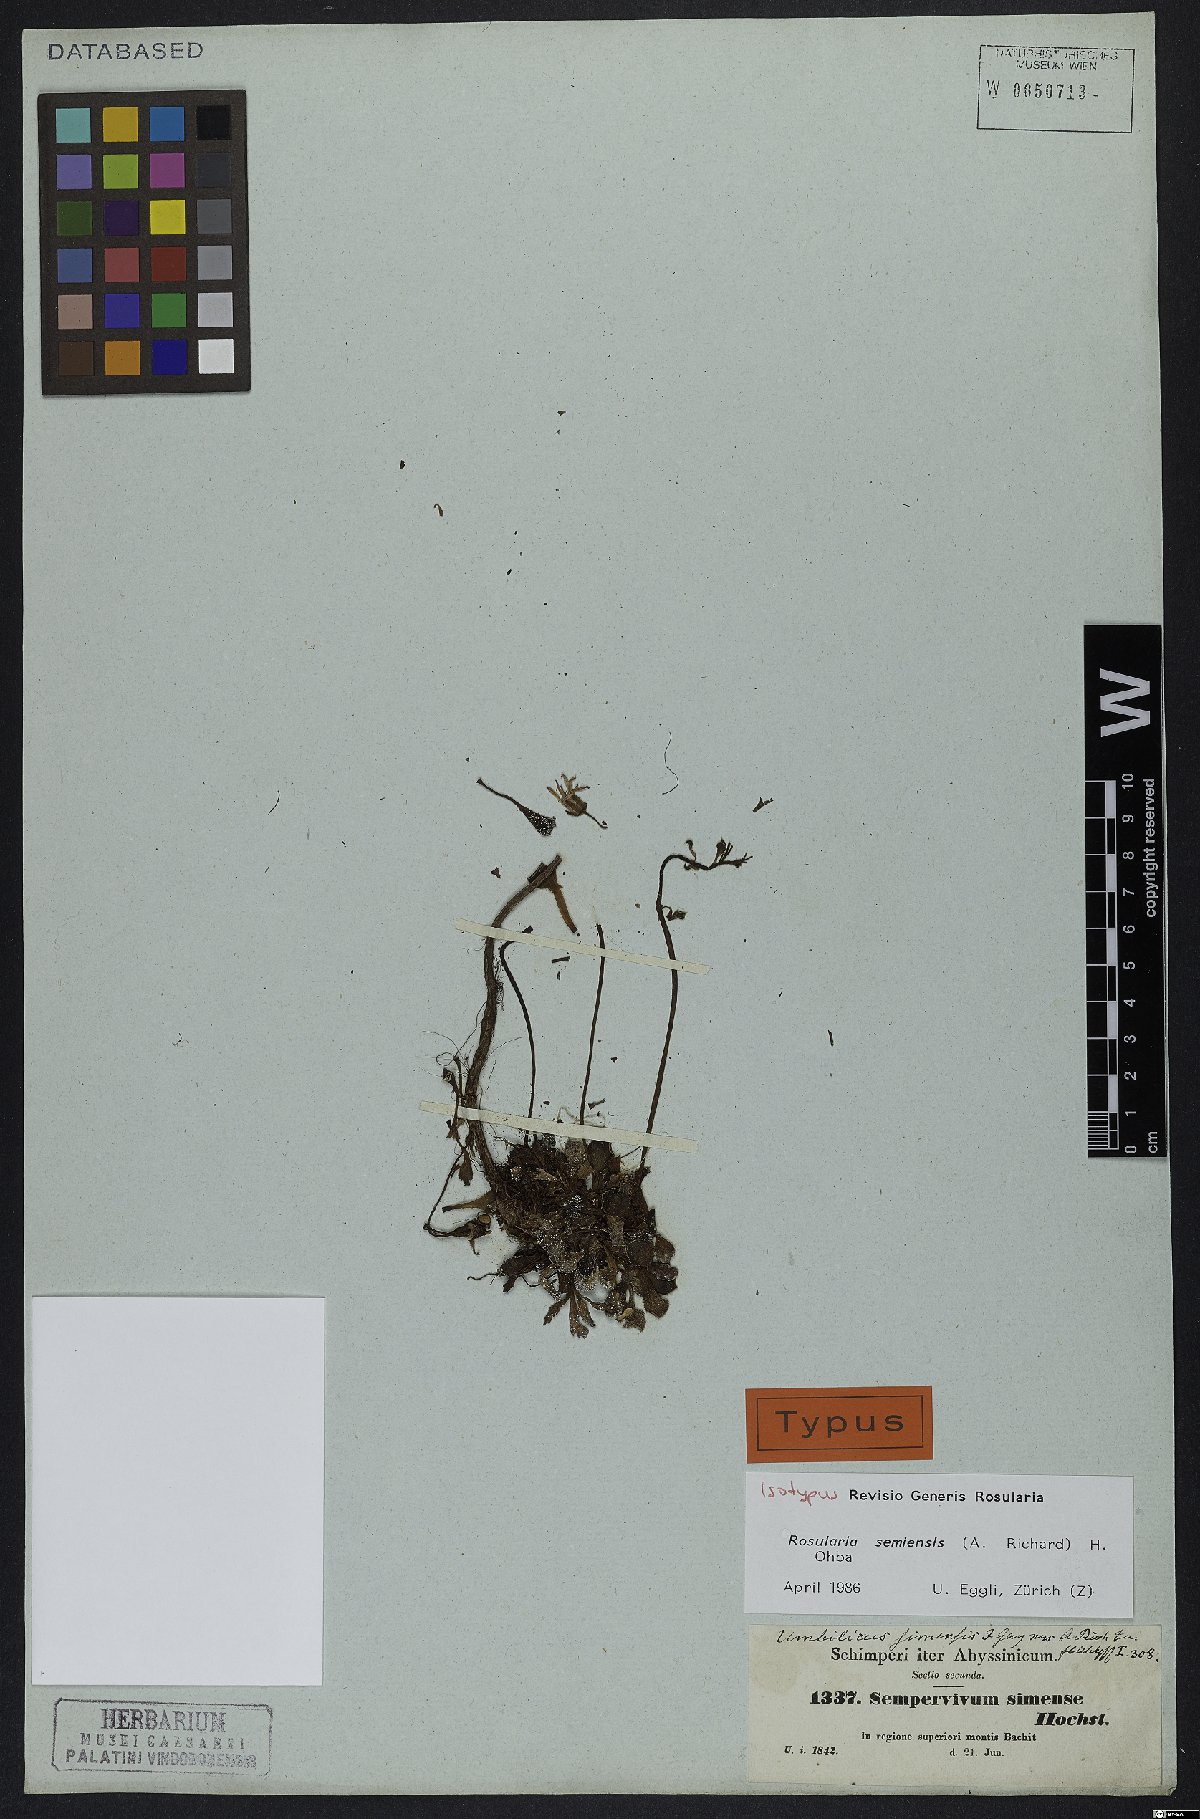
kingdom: Plantae
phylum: Tracheophyta
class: Magnoliopsida
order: Saxifragales
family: Crassulaceae
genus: Afrovivella
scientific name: Afrovivella semiensis
